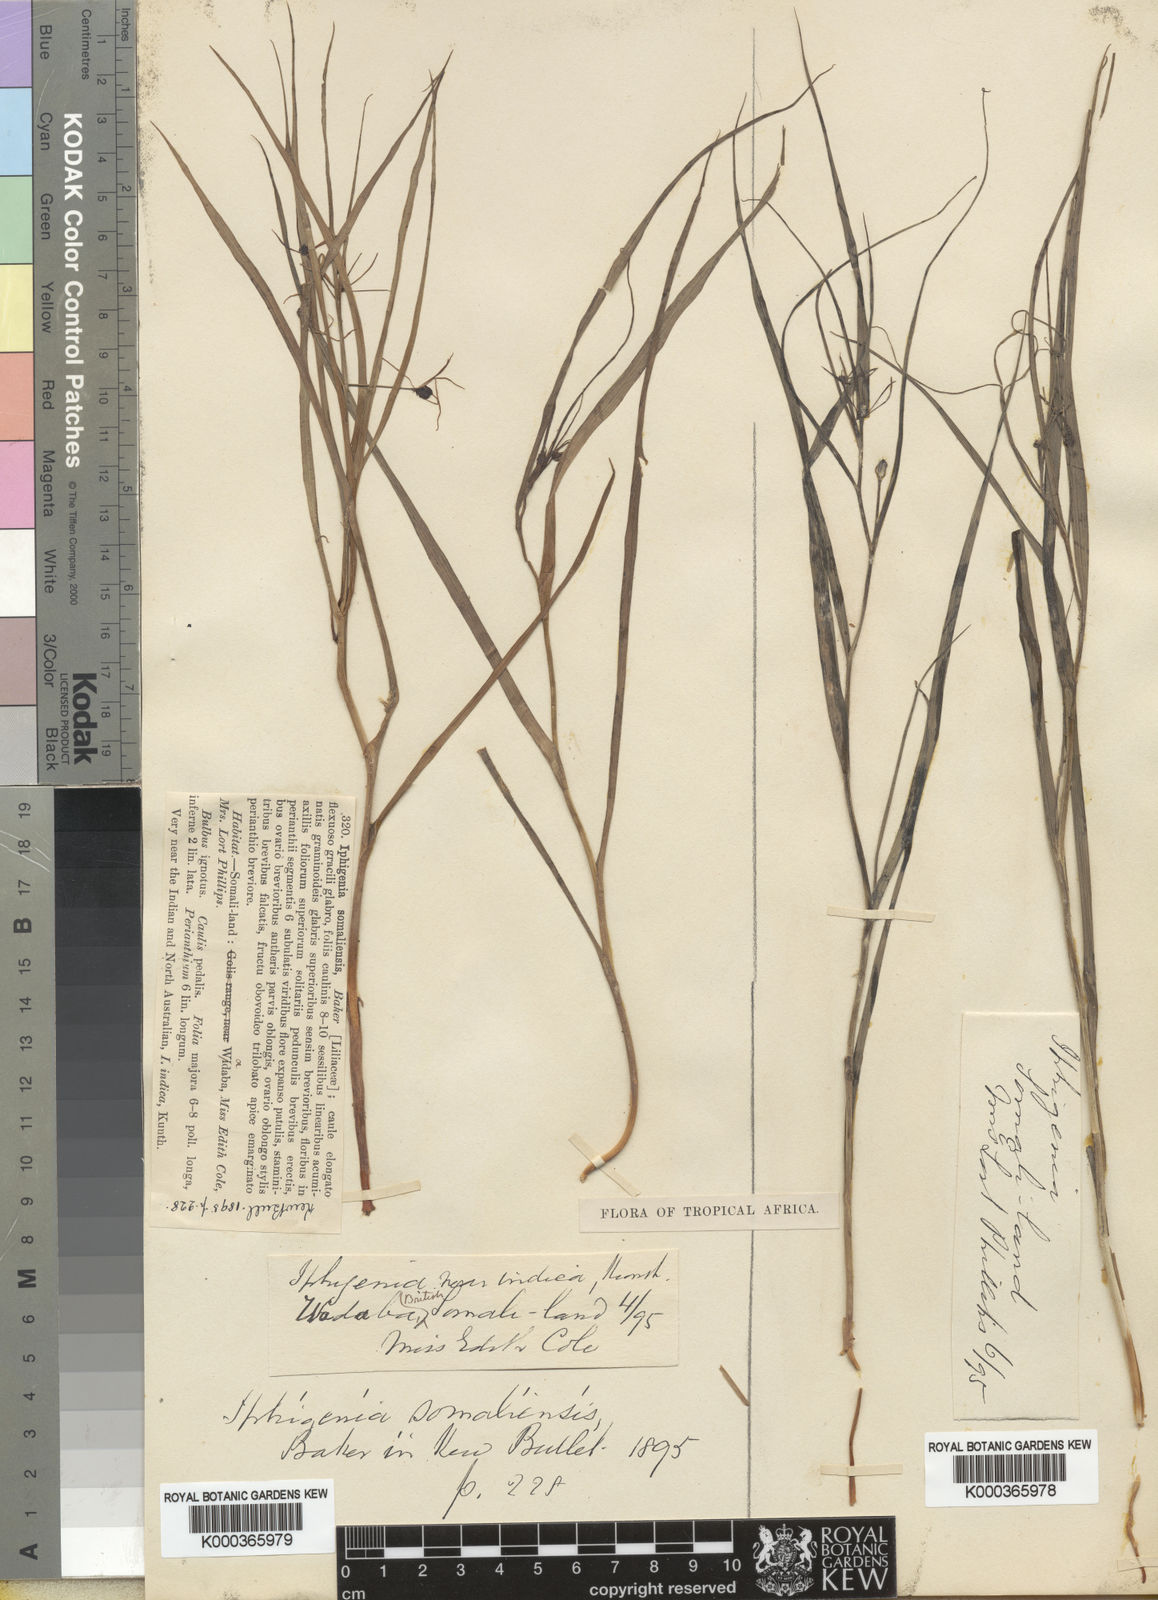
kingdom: Plantae
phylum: Tracheophyta
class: Liliopsida
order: Liliales
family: Colchicaceae
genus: Iphigenia
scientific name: Iphigenia oliveri
